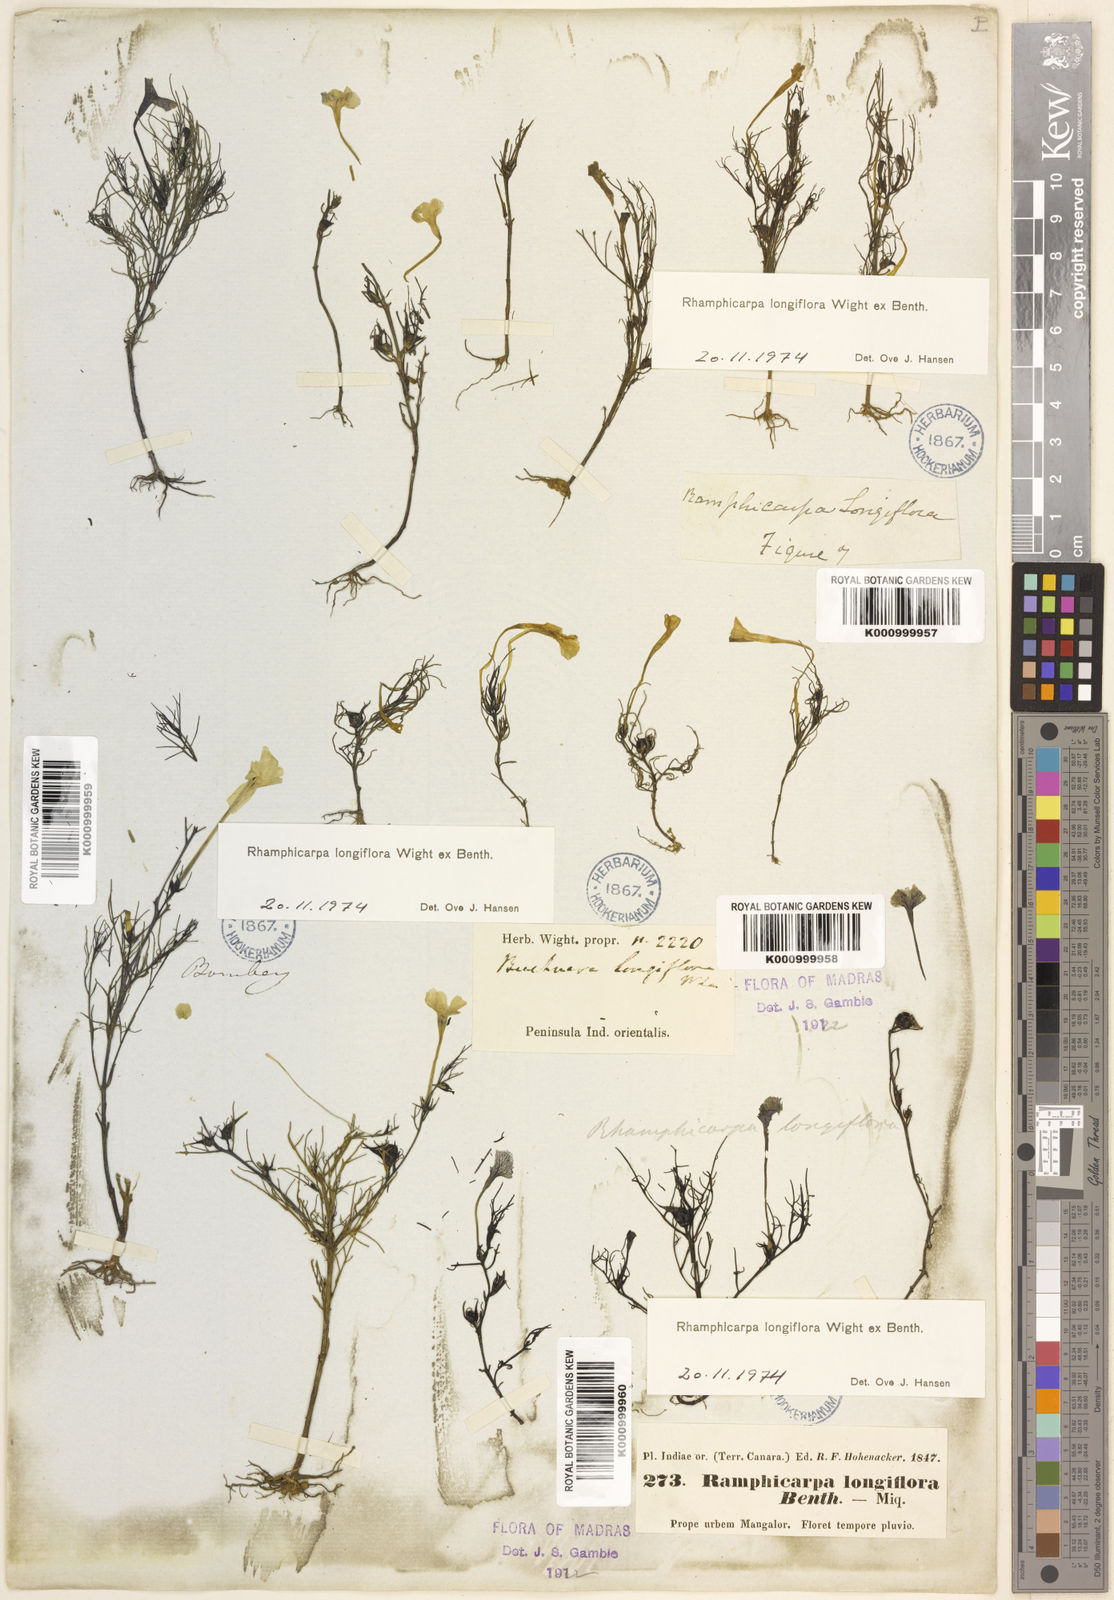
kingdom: Plantae
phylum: Tracheophyta
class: Magnoliopsida
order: Lamiales
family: Orobanchaceae
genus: Rhamphicarpa
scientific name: Rhamphicarpa elongata
